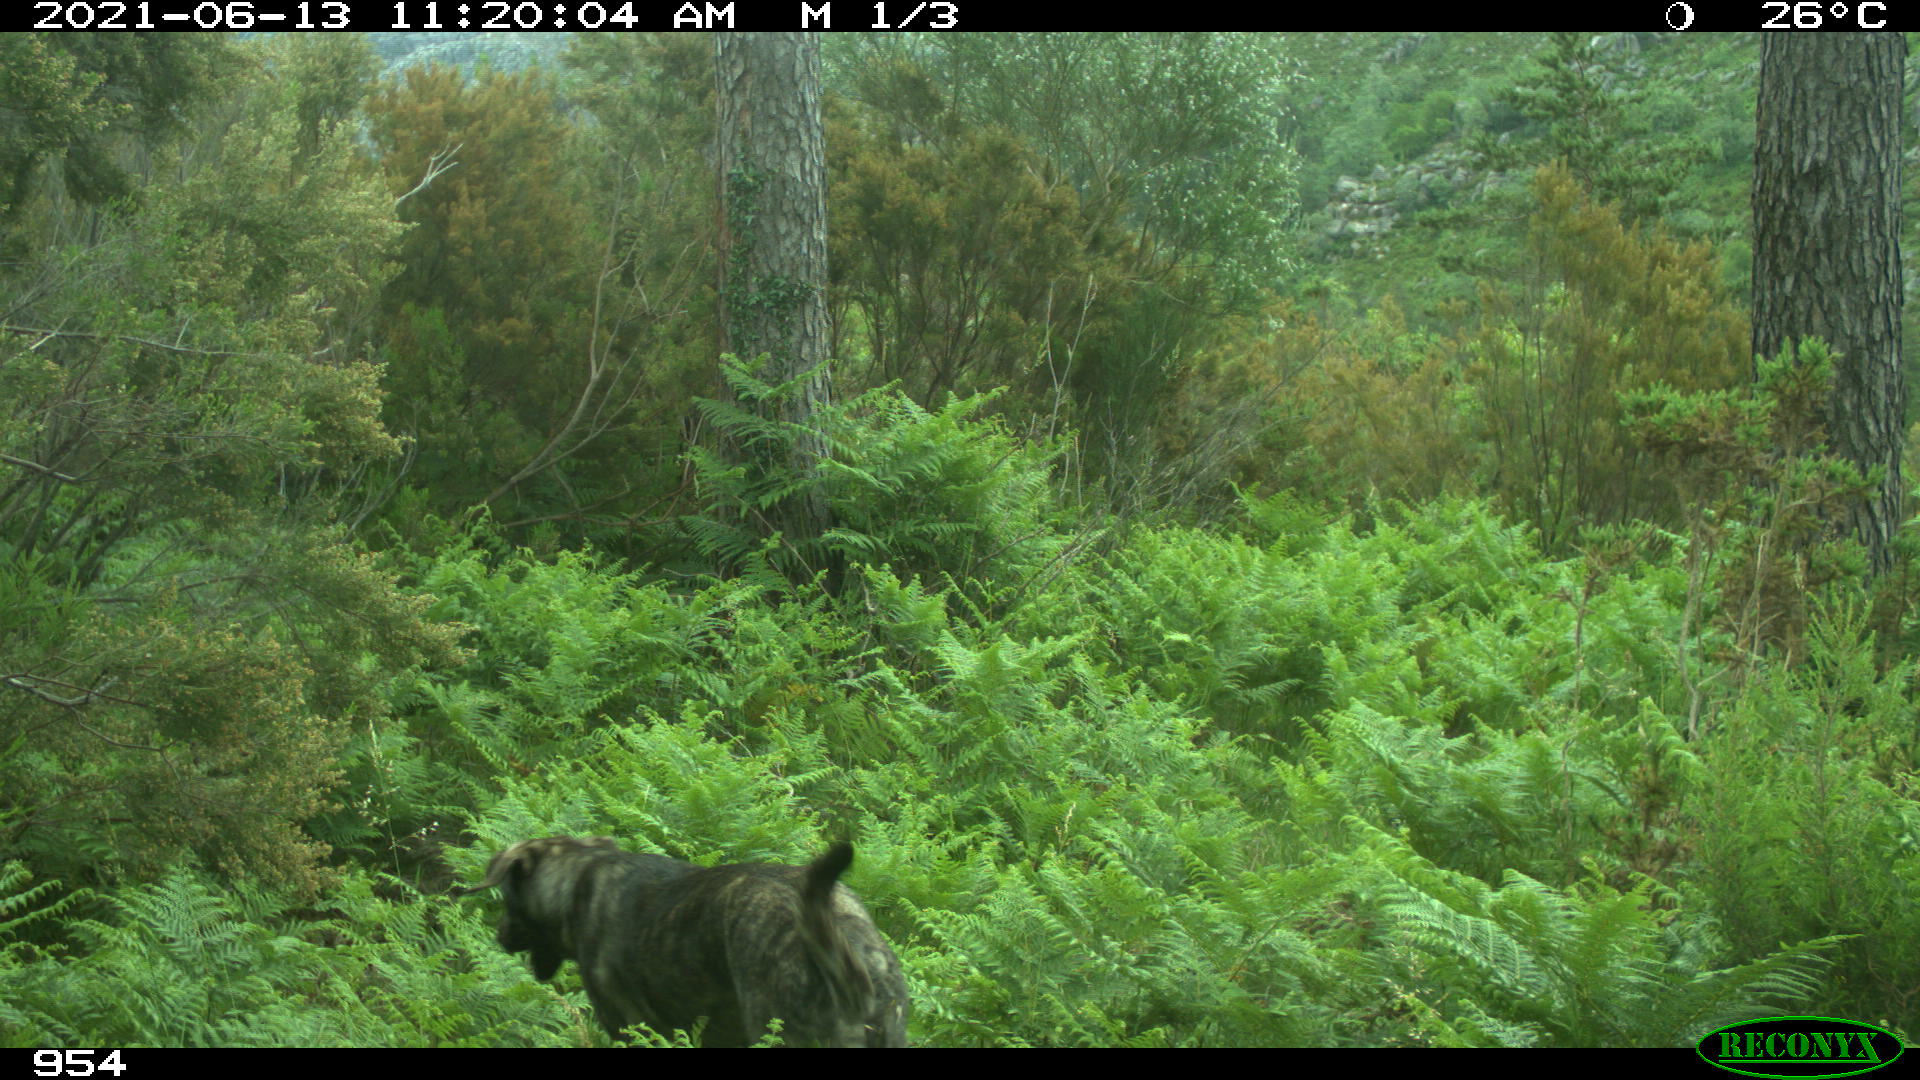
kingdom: Animalia
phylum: Chordata
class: Mammalia
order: Carnivora
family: Canidae
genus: Canis
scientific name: Canis lupus
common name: Gray wolf
